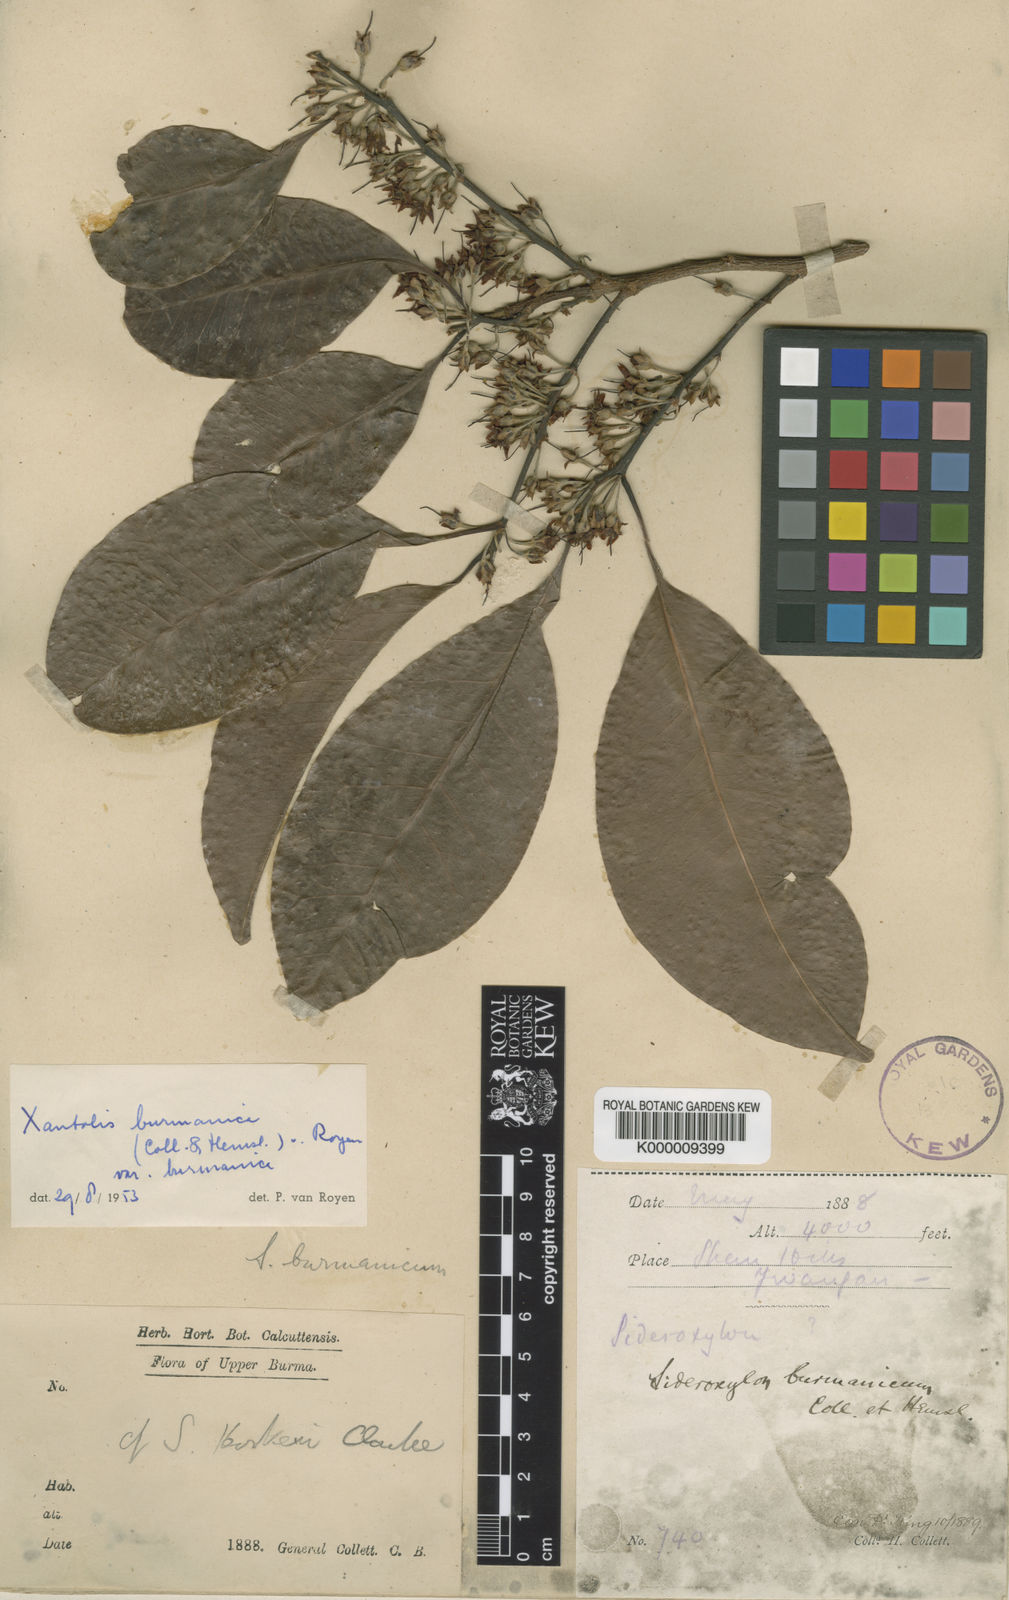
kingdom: Plantae
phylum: Tracheophyta
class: Magnoliopsida
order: Ericales
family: Sapotaceae
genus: Xantolis
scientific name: Xantolis burmanica
